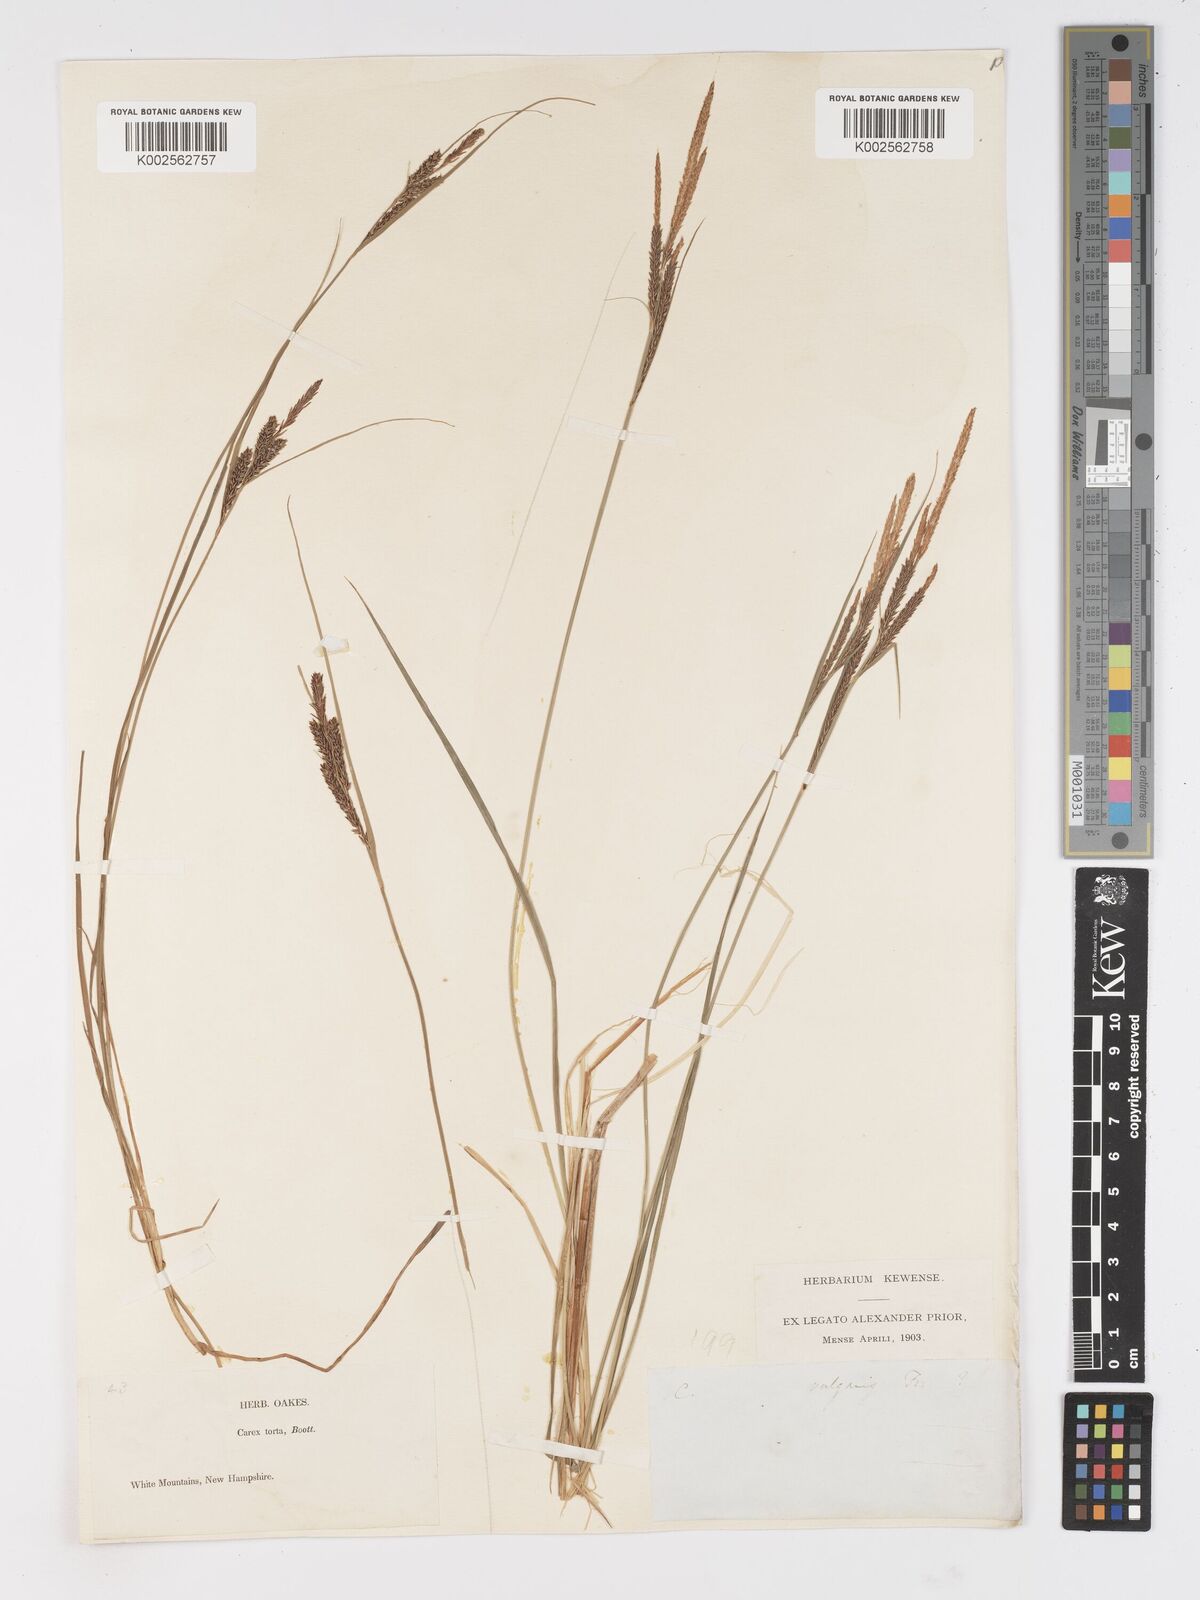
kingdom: Plantae
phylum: Tracheophyta
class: Liliopsida
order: Poales
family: Cyperaceae
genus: Carex
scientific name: Carex torta
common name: Twisted sedge
